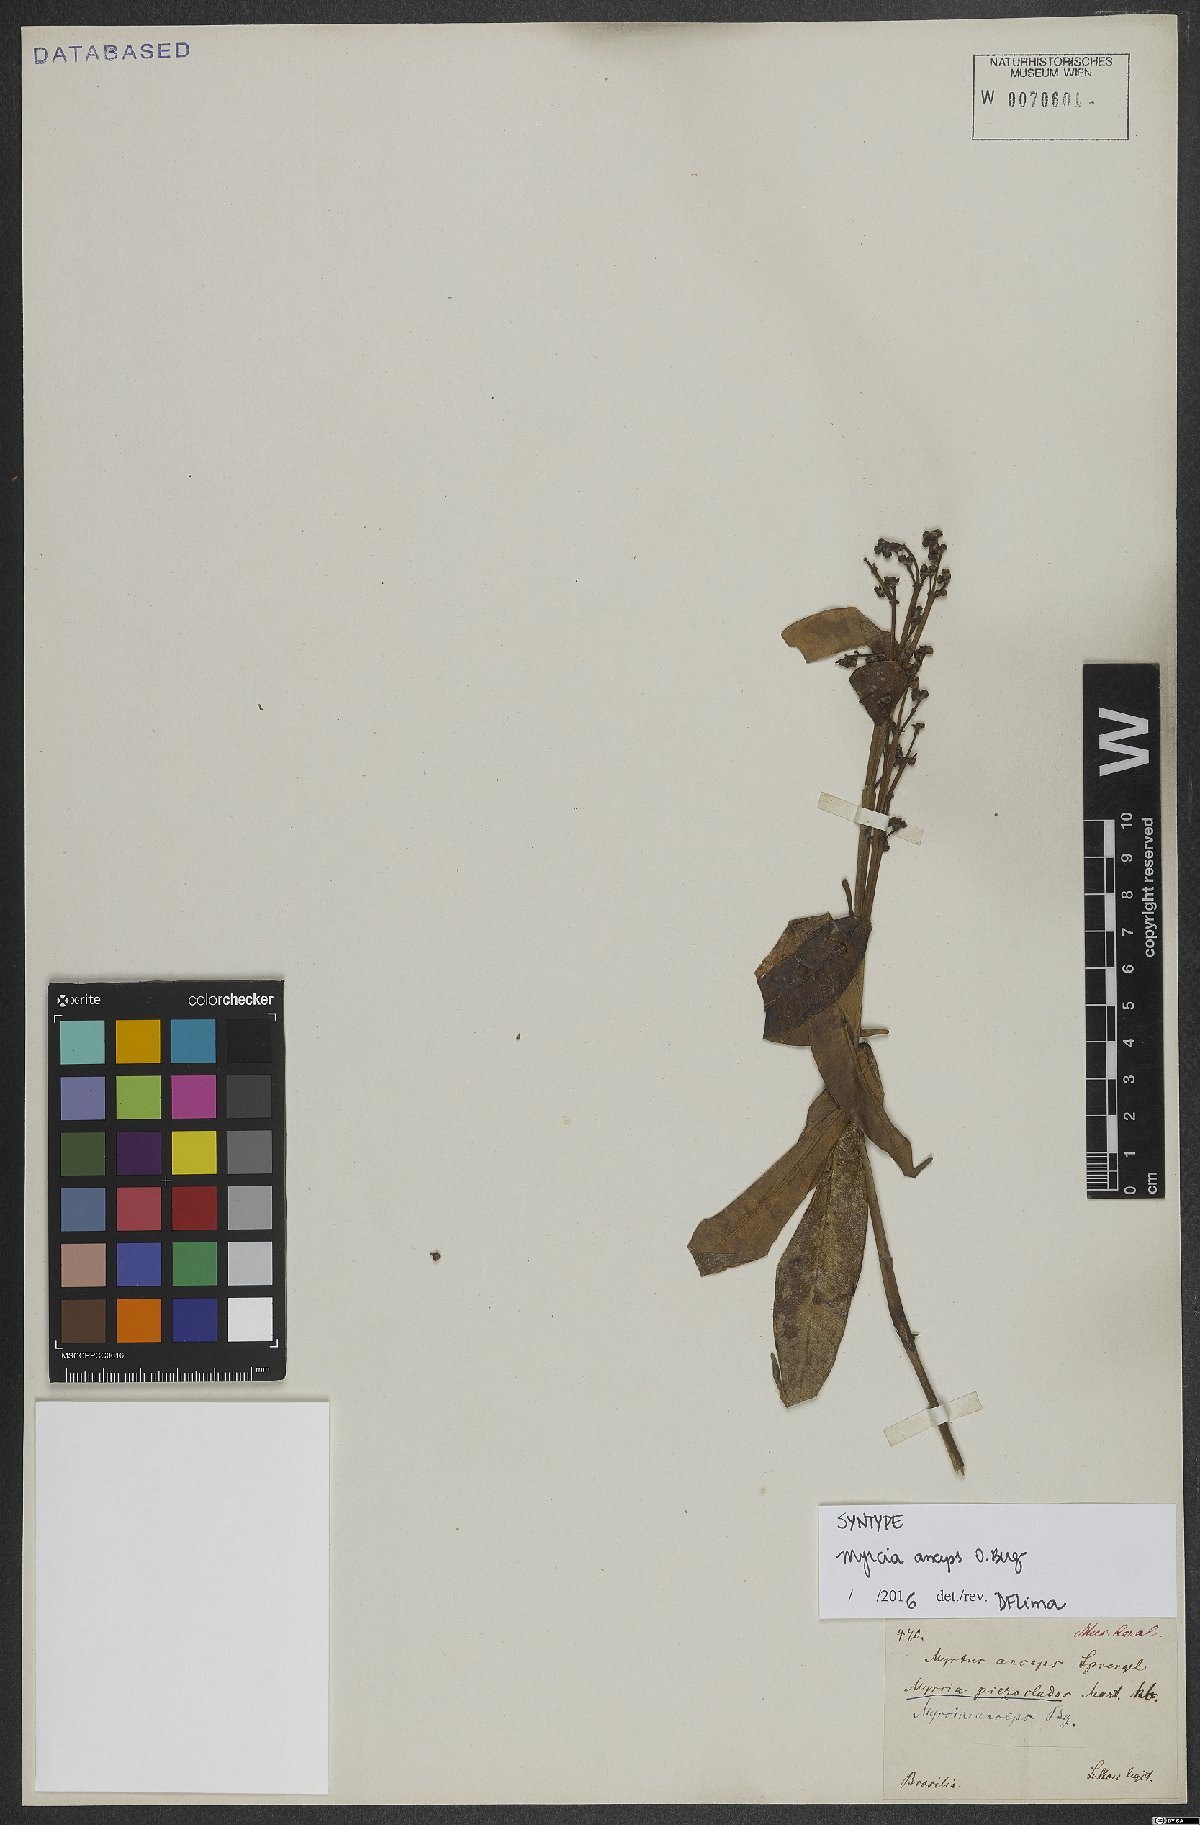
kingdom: Plantae
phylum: Tracheophyta
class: Magnoliopsida
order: Myrtales
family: Myrtaceae
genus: Myrcia
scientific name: Myrcia anceps
